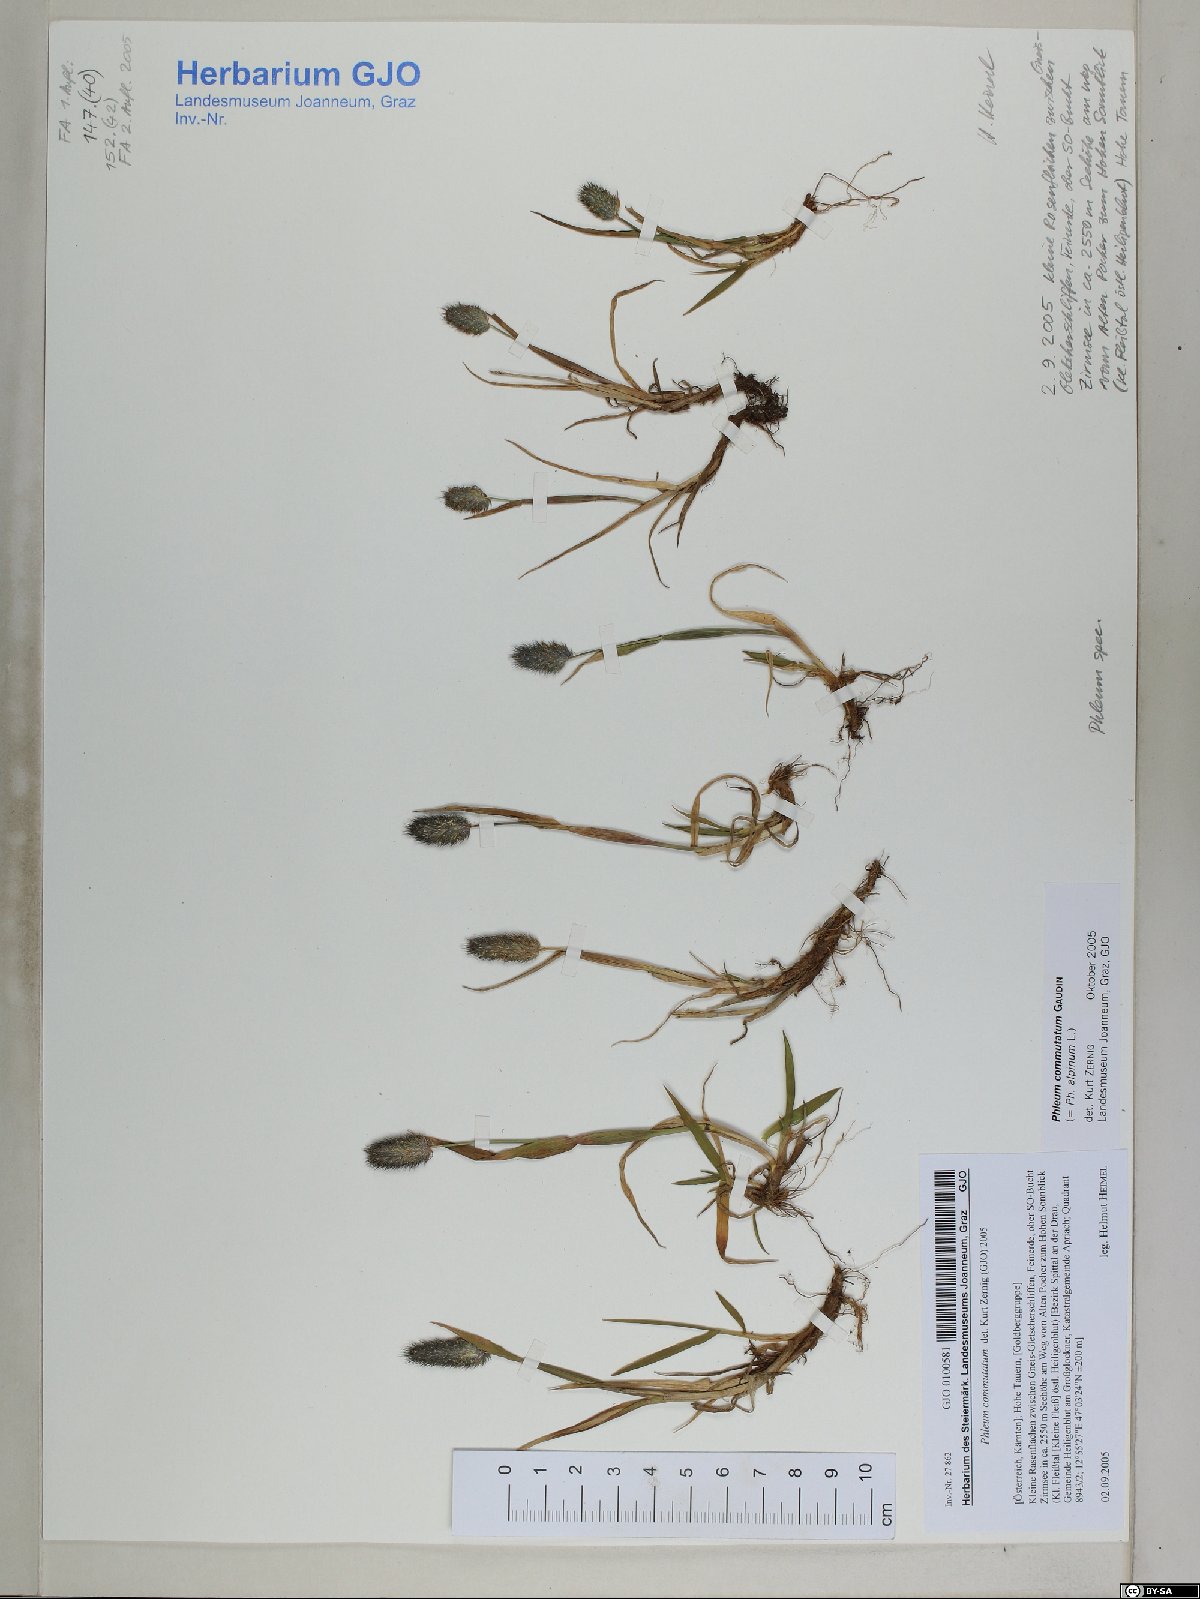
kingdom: Plantae
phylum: Tracheophyta
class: Liliopsida
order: Poales
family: Poaceae
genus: Phleum
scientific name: Phleum alpinum
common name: Alpine cat's-tail
